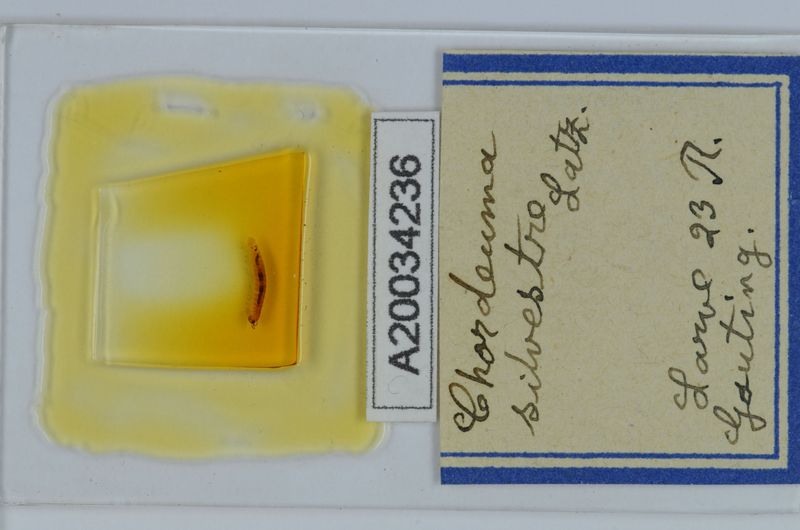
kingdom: Animalia
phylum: Arthropoda
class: Diplopoda
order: Chordeumatida
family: Chordeumatidae
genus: Chordeuma
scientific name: Chordeuma sylvestre
